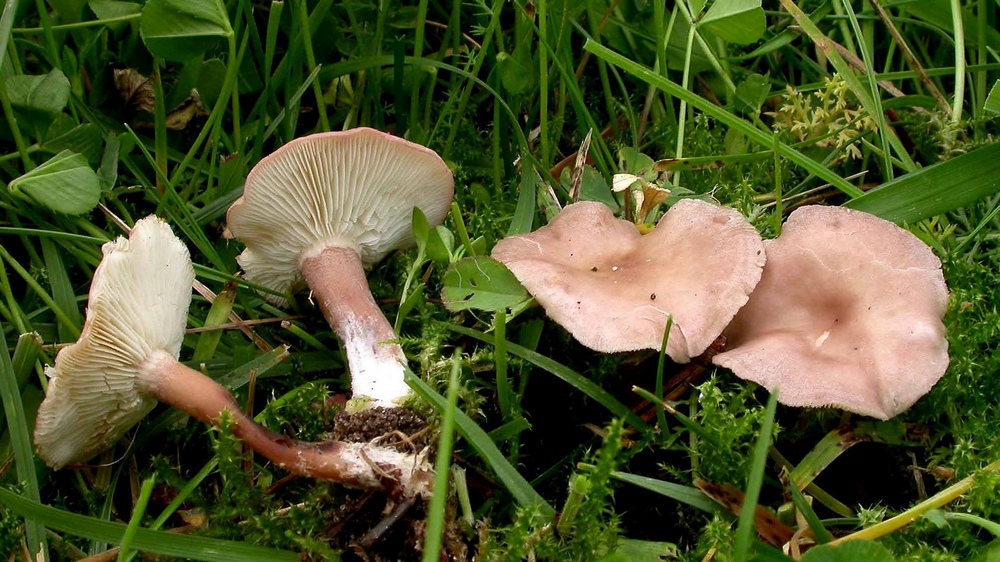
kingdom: Fungi
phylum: Basidiomycota
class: Agaricomycetes
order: Agaricales
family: Lyophyllaceae
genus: Calocybe
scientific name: Calocybe carnea
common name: rosa fagerhat
